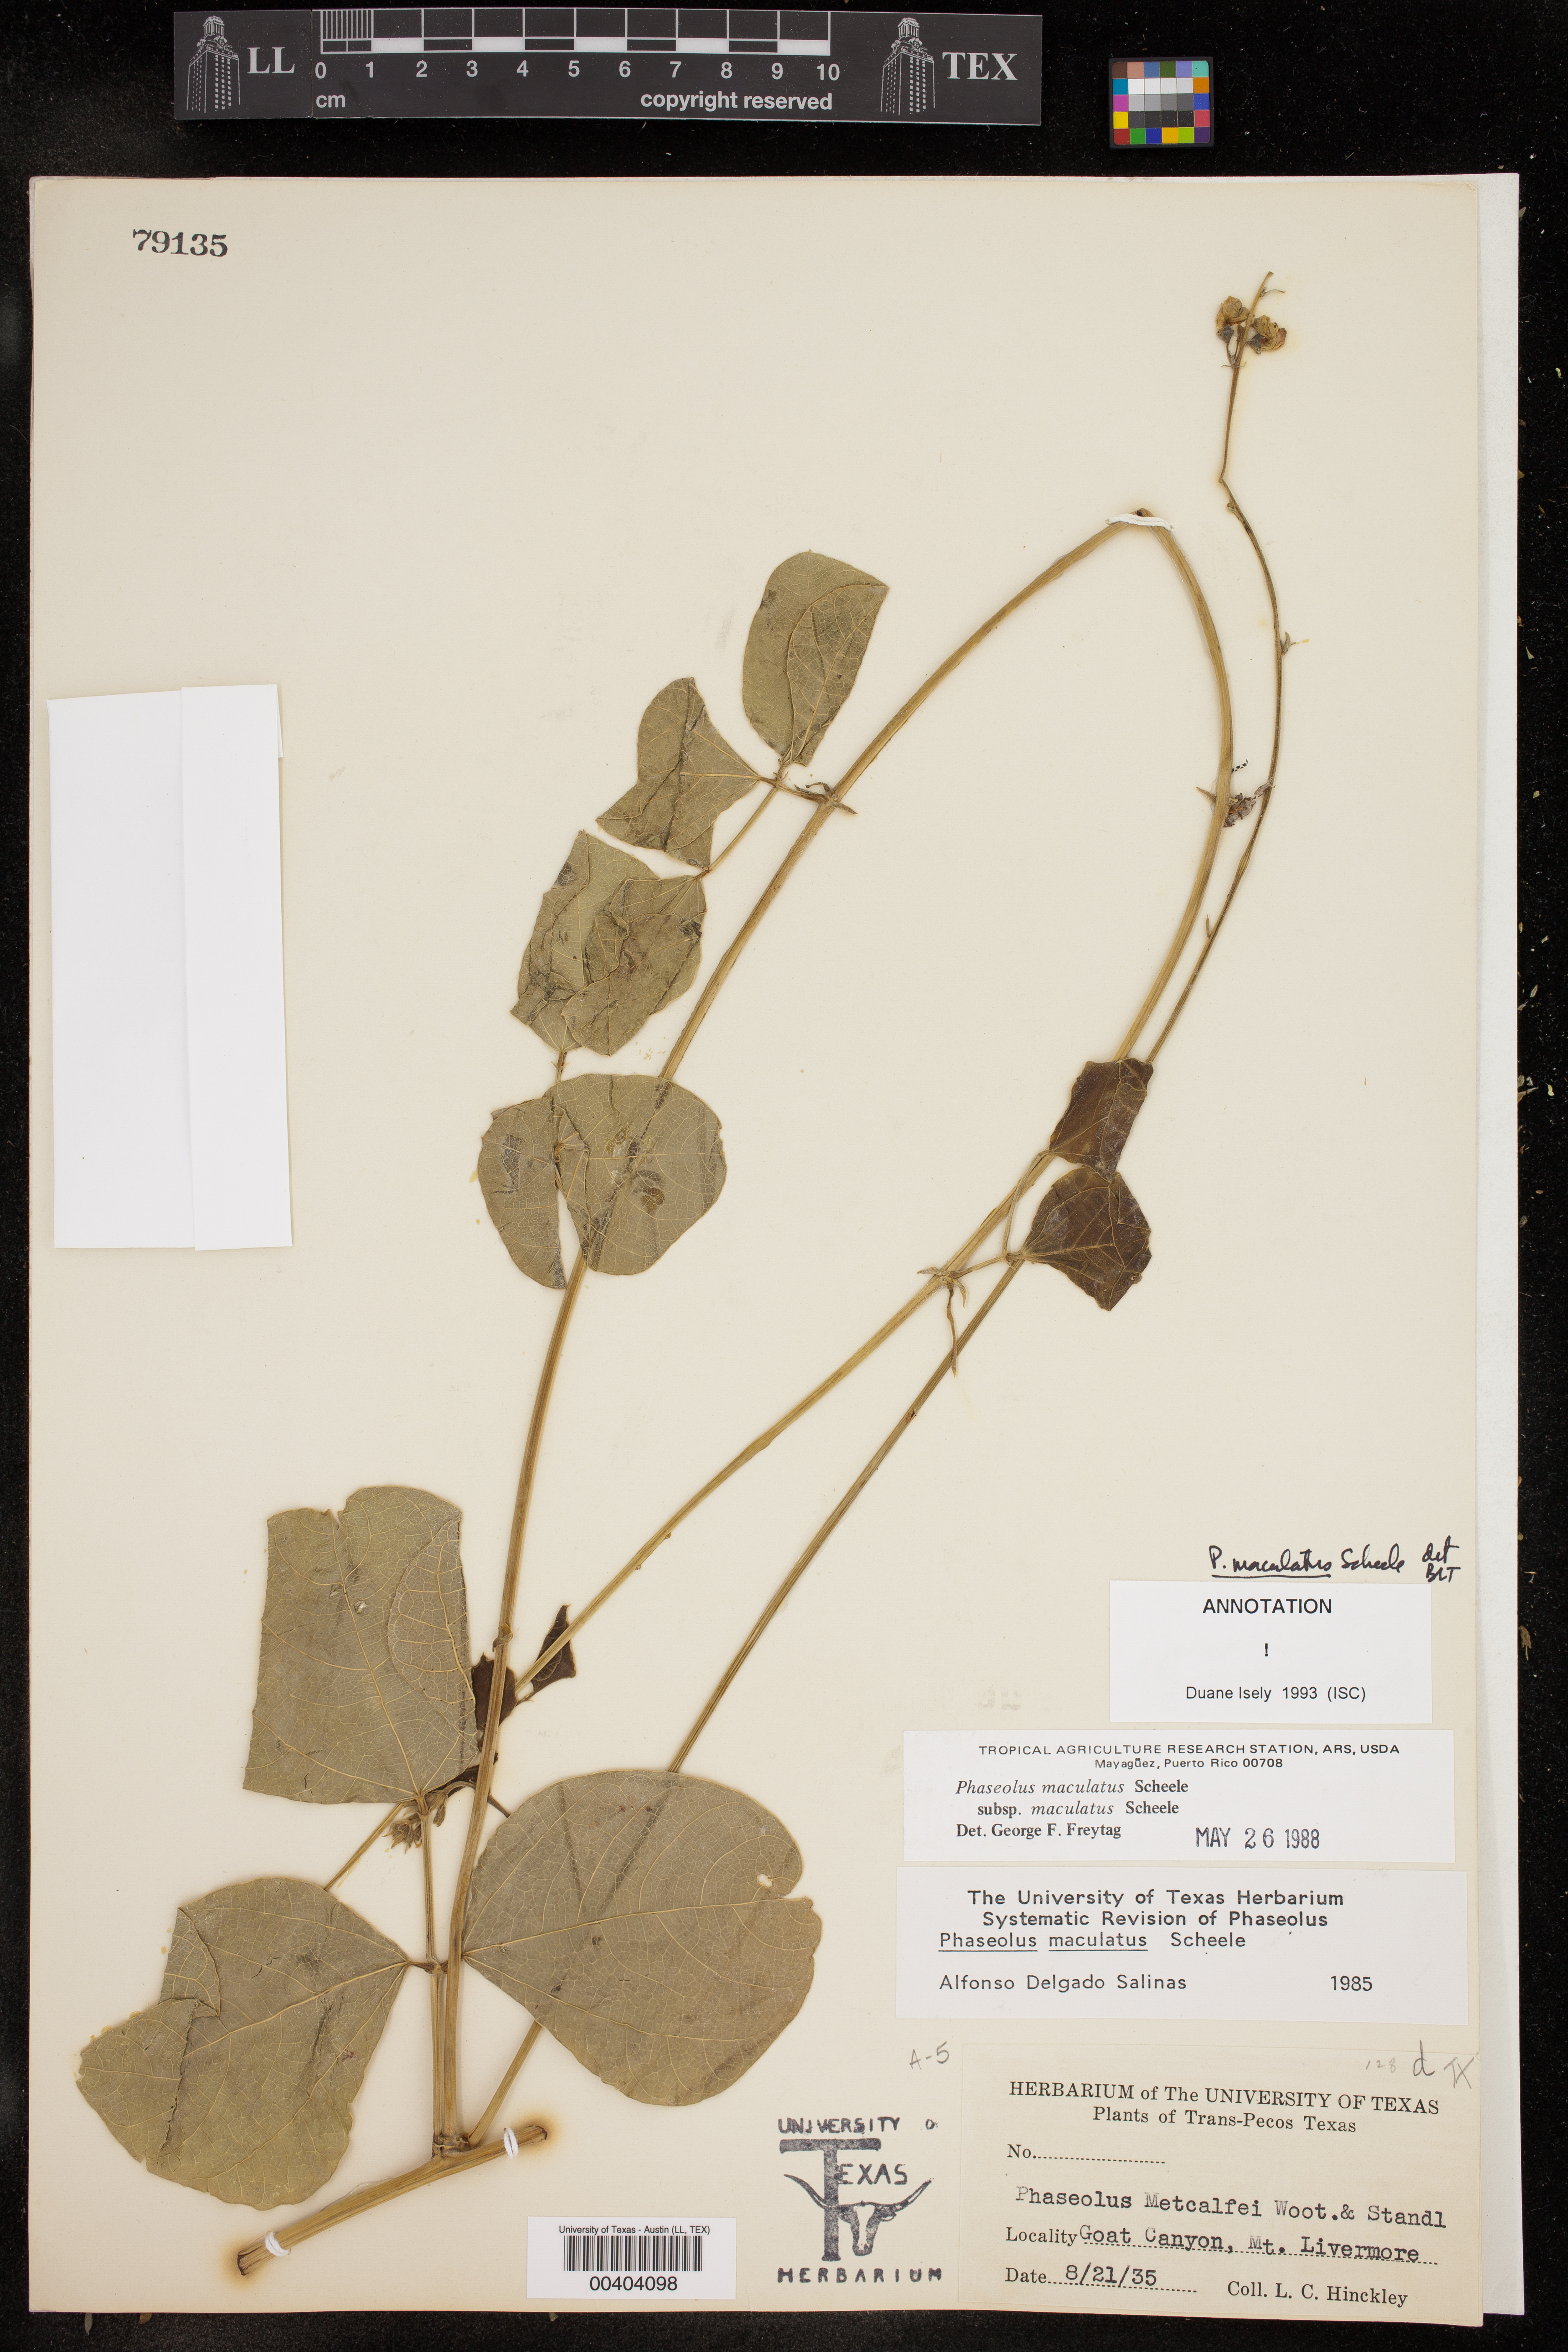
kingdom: Plantae
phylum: Tracheophyta
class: Magnoliopsida
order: Fabales
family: Fabaceae
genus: Phaseolus
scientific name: Phaseolus maculatus
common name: Metcalfe bean
